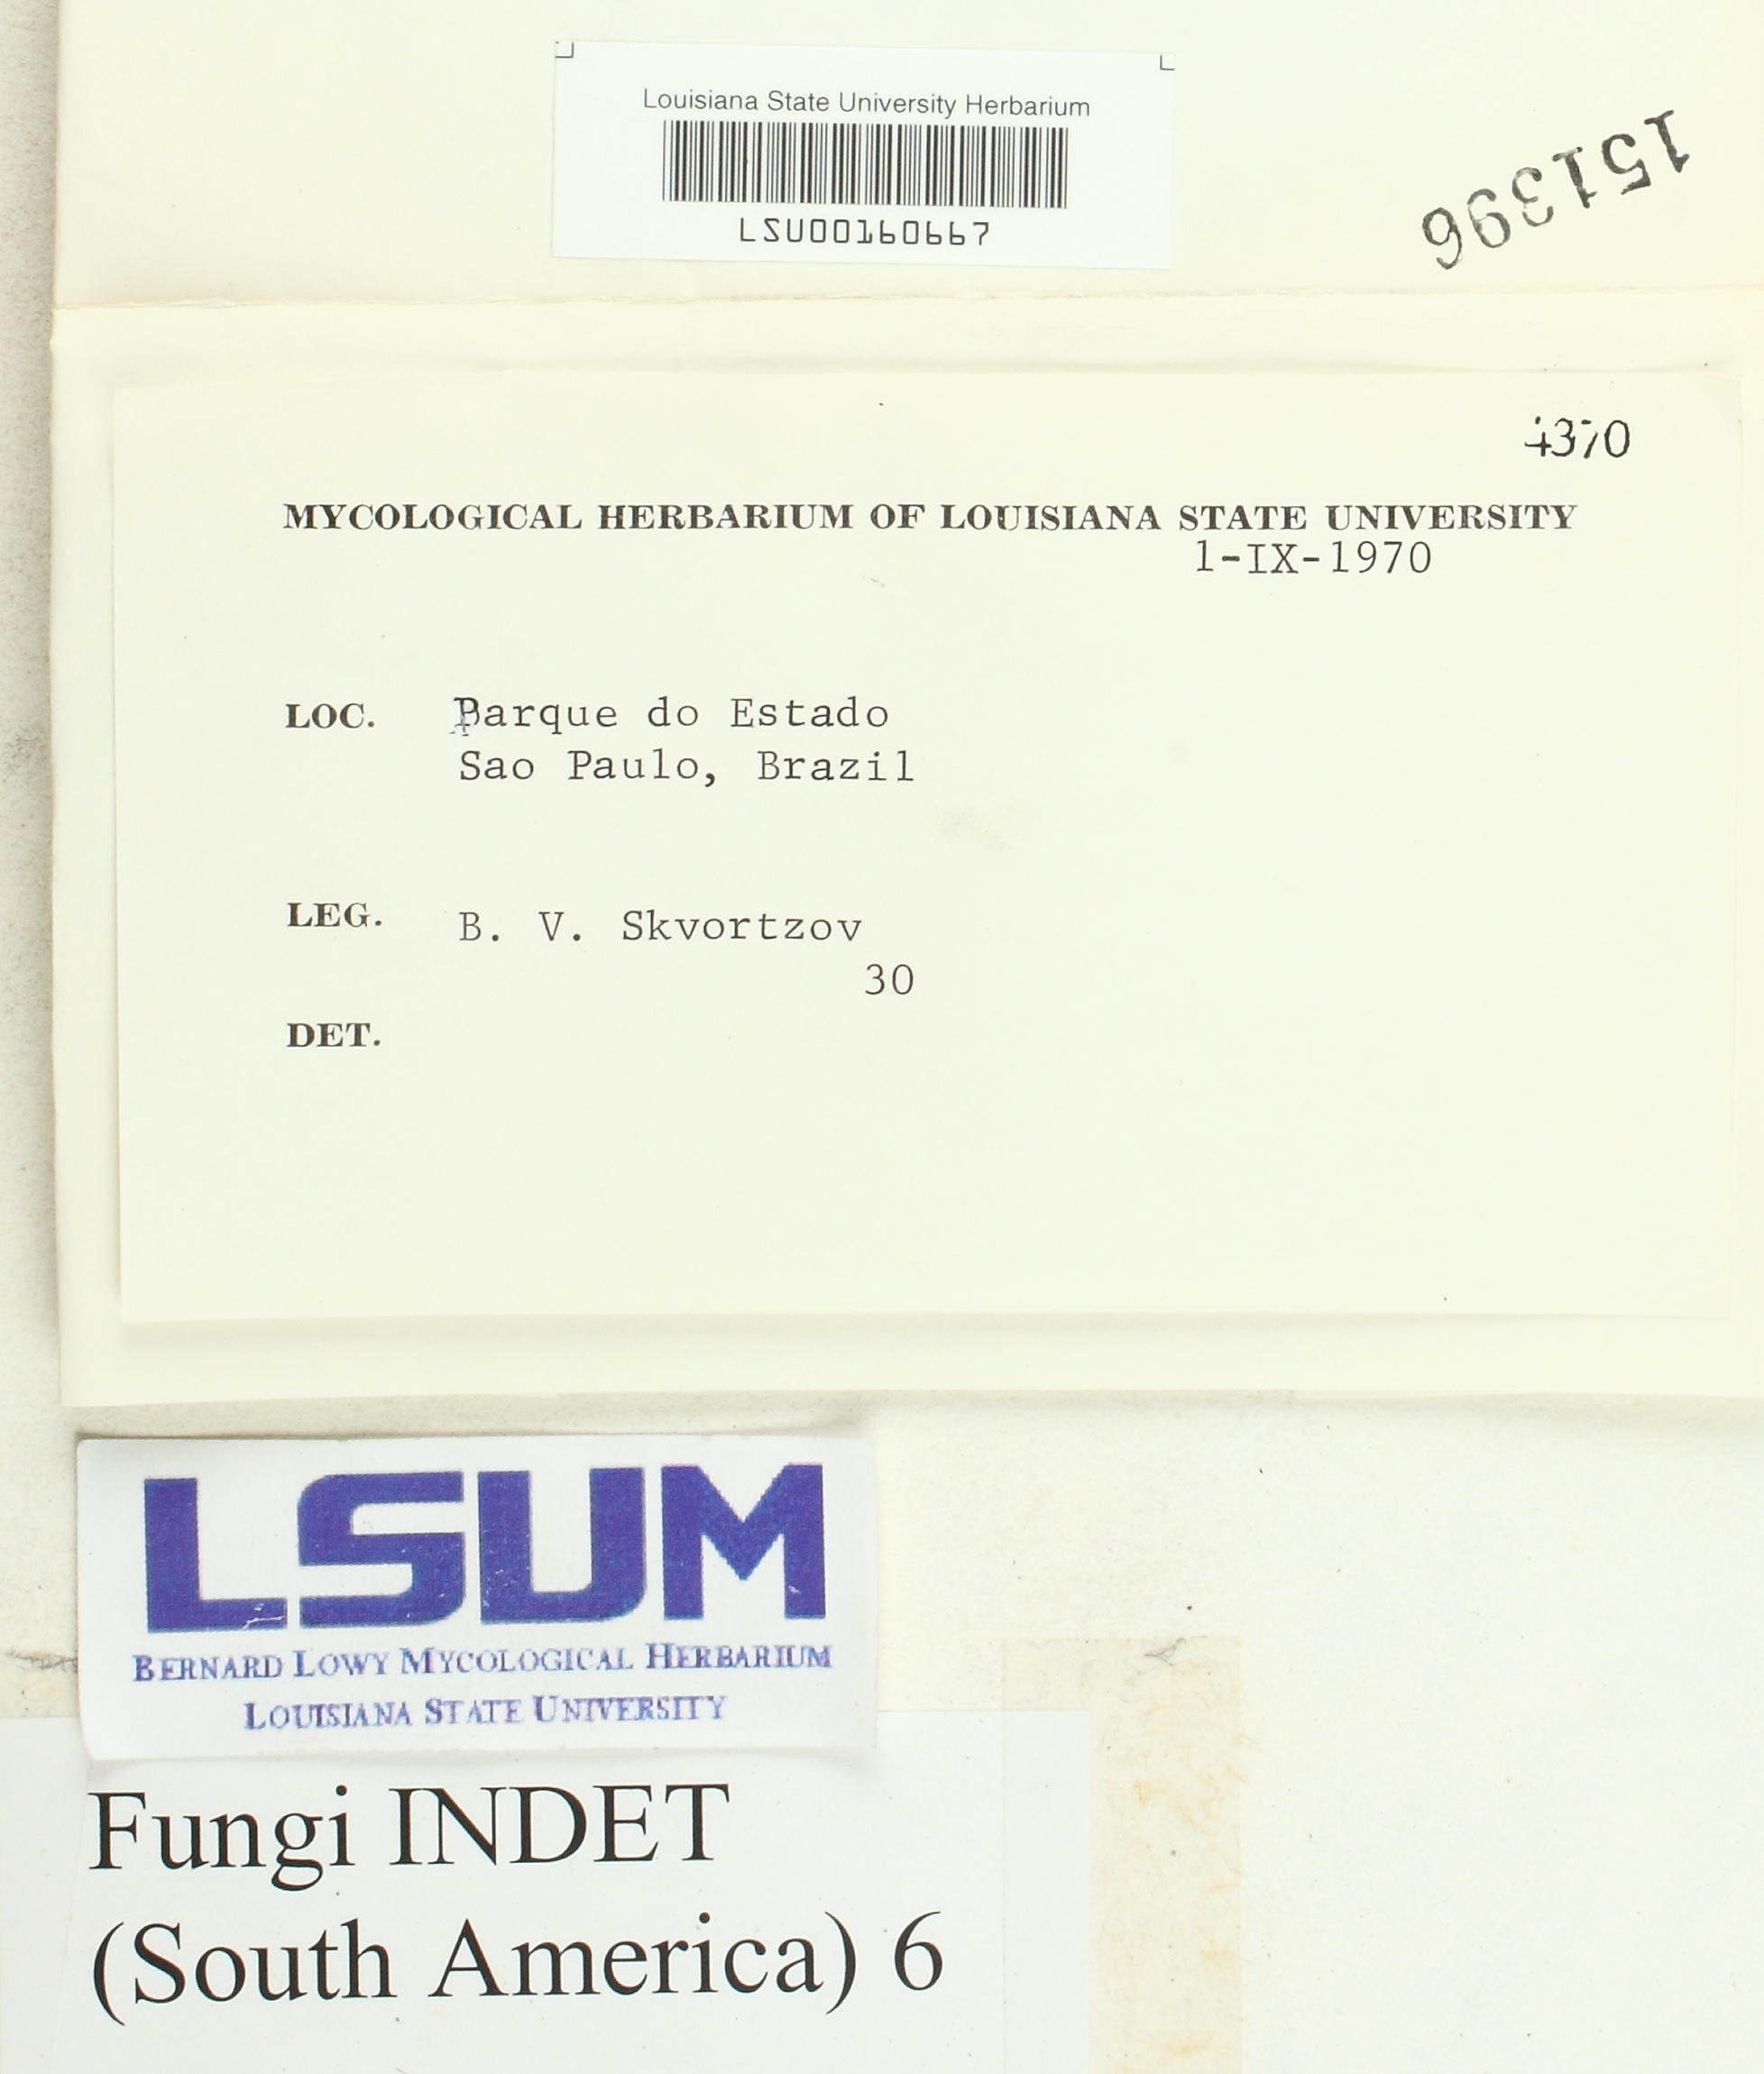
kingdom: Fungi
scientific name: Fungi
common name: Fungi
